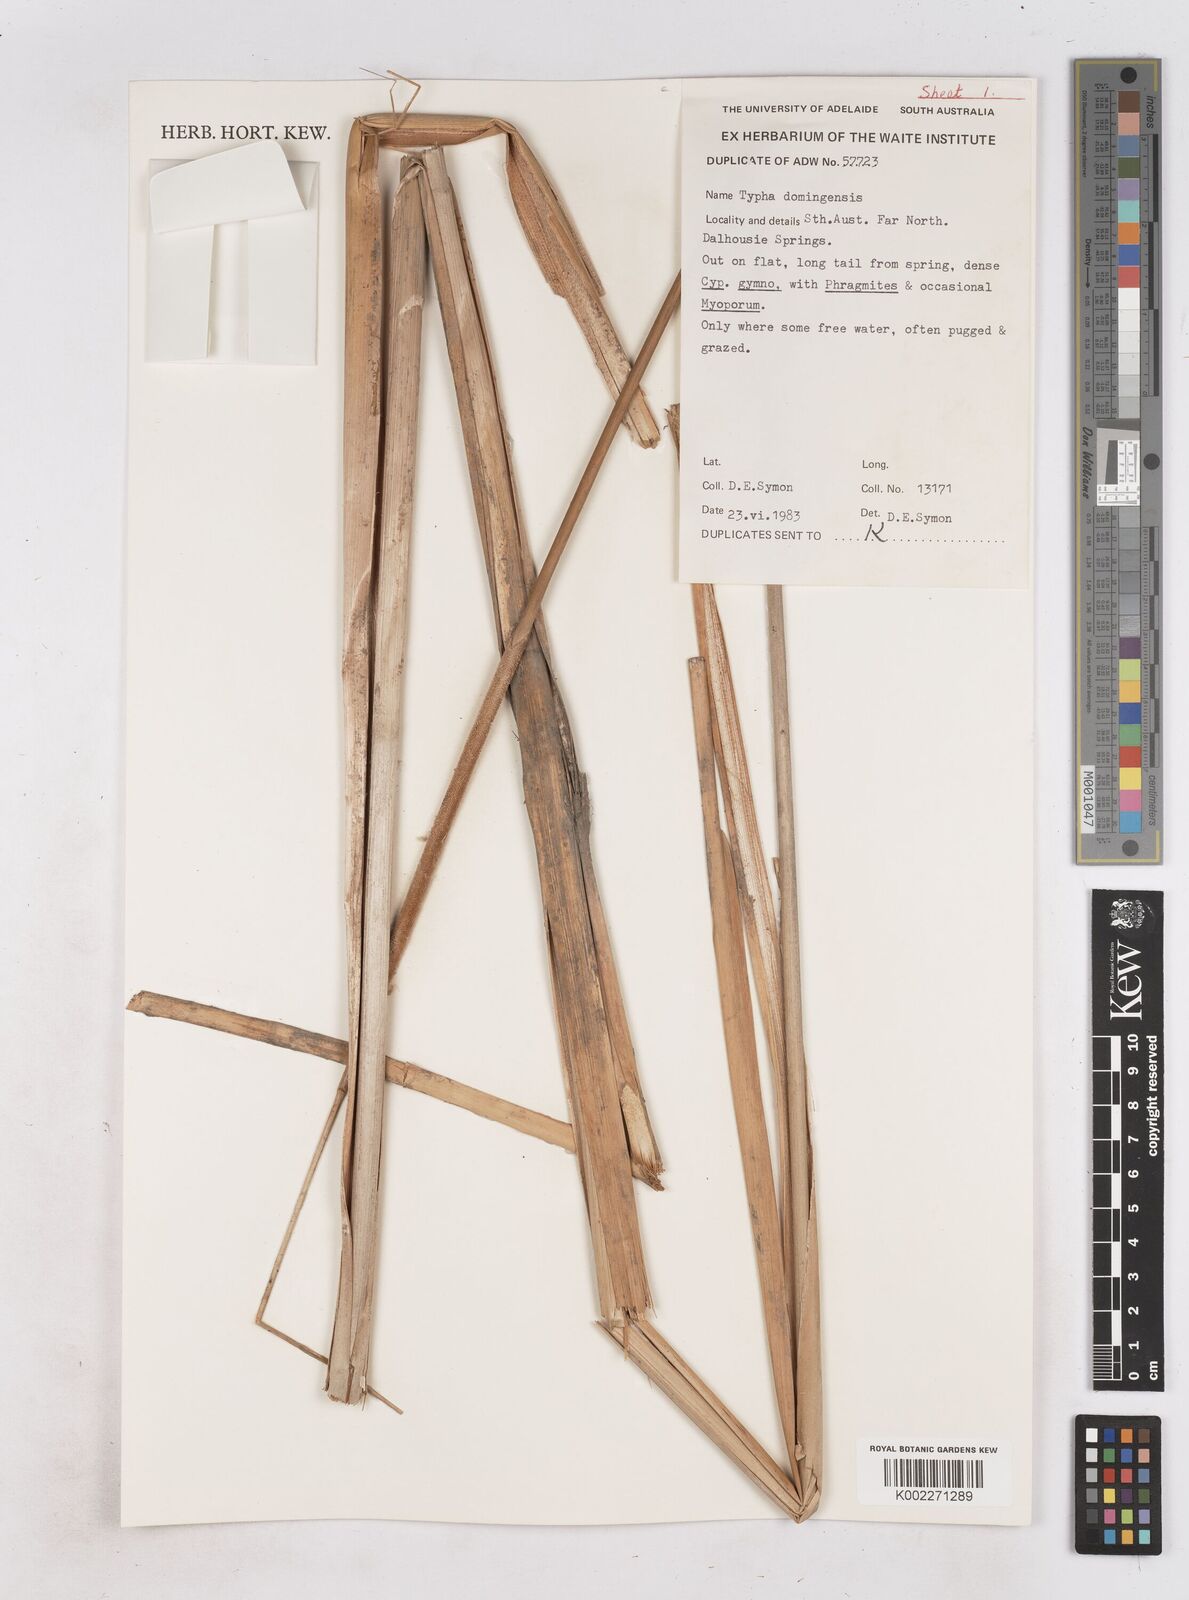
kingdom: Plantae
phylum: Tracheophyta
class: Liliopsida
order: Poales
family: Typhaceae
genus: Typha
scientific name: Typha domingensis
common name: Southern cattail
